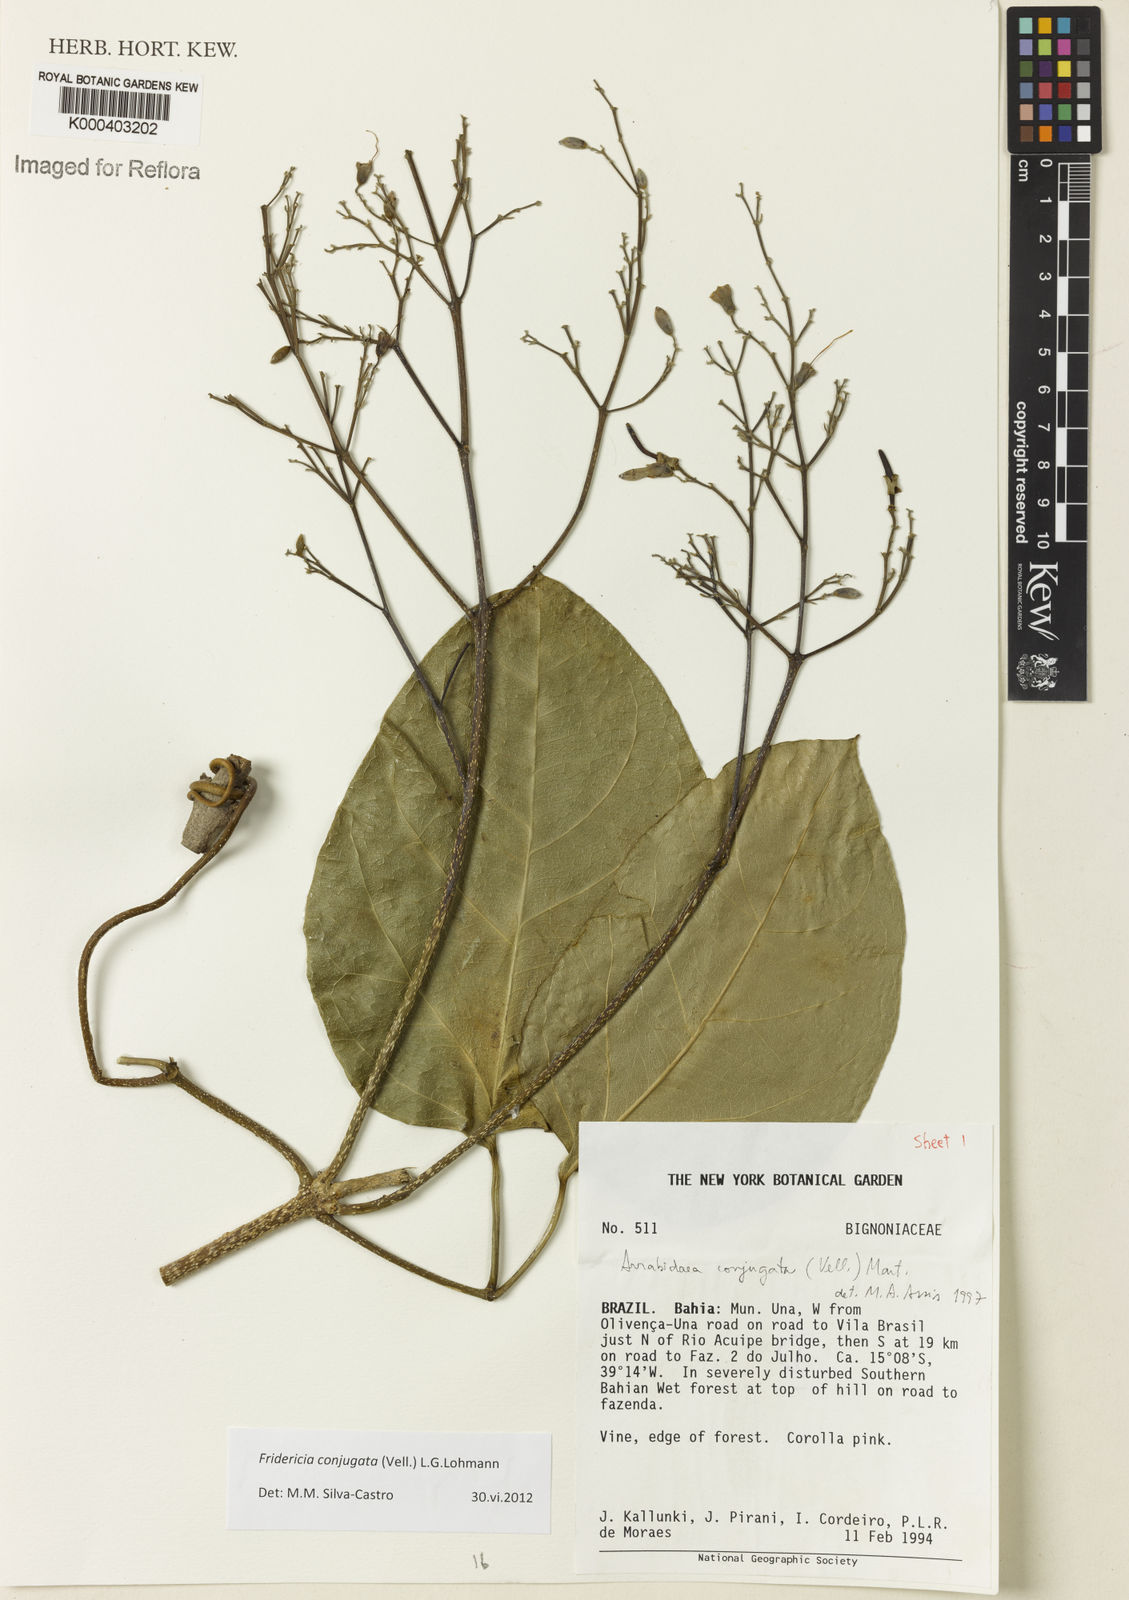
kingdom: Plantae
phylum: Tracheophyta
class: Magnoliopsida
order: Lamiales
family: Bignoniaceae
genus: Fridericia
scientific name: Fridericia conjugata
